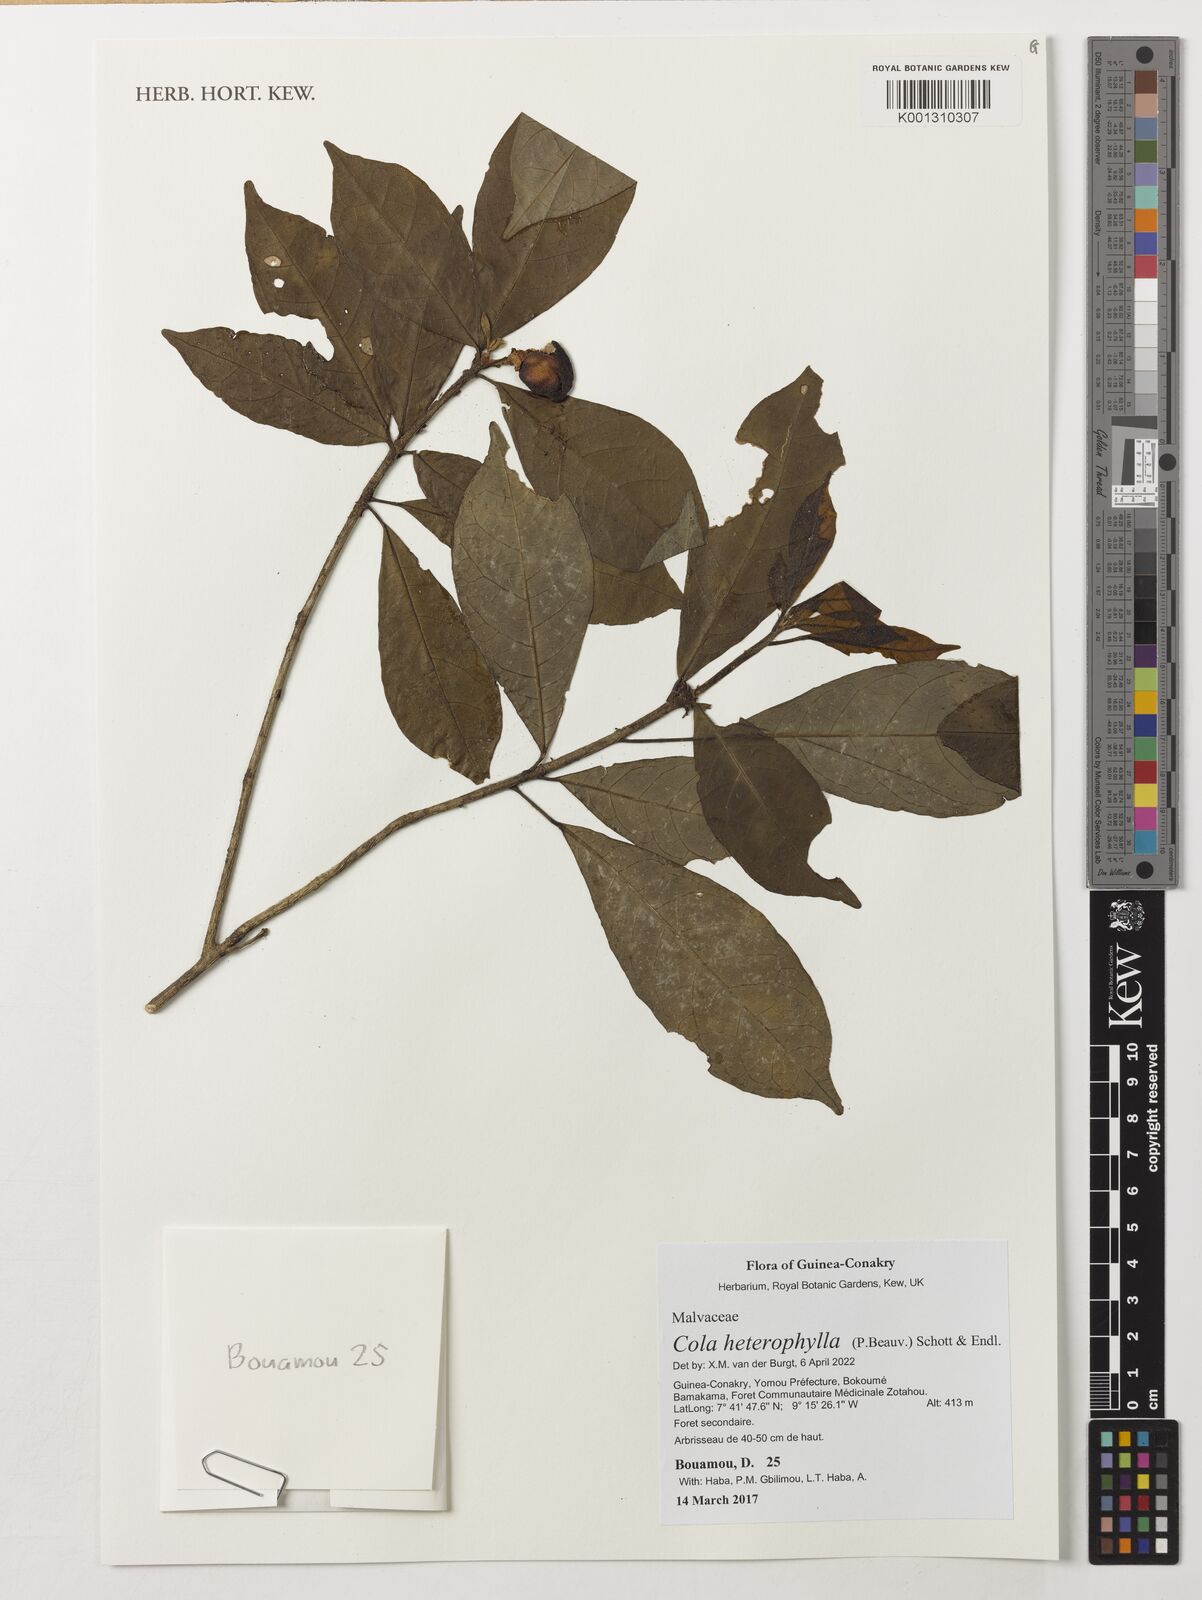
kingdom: Plantae
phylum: Tracheophyta
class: Magnoliopsida
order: Malvales
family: Malvaceae
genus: Cola
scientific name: Cola heterophylla
